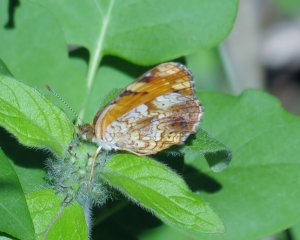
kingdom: Animalia
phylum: Arthropoda
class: Insecta
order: Lepidoptera
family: Nymphalidae
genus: Phyciodes
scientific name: Phyciodes tharos
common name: Northern Crescent
